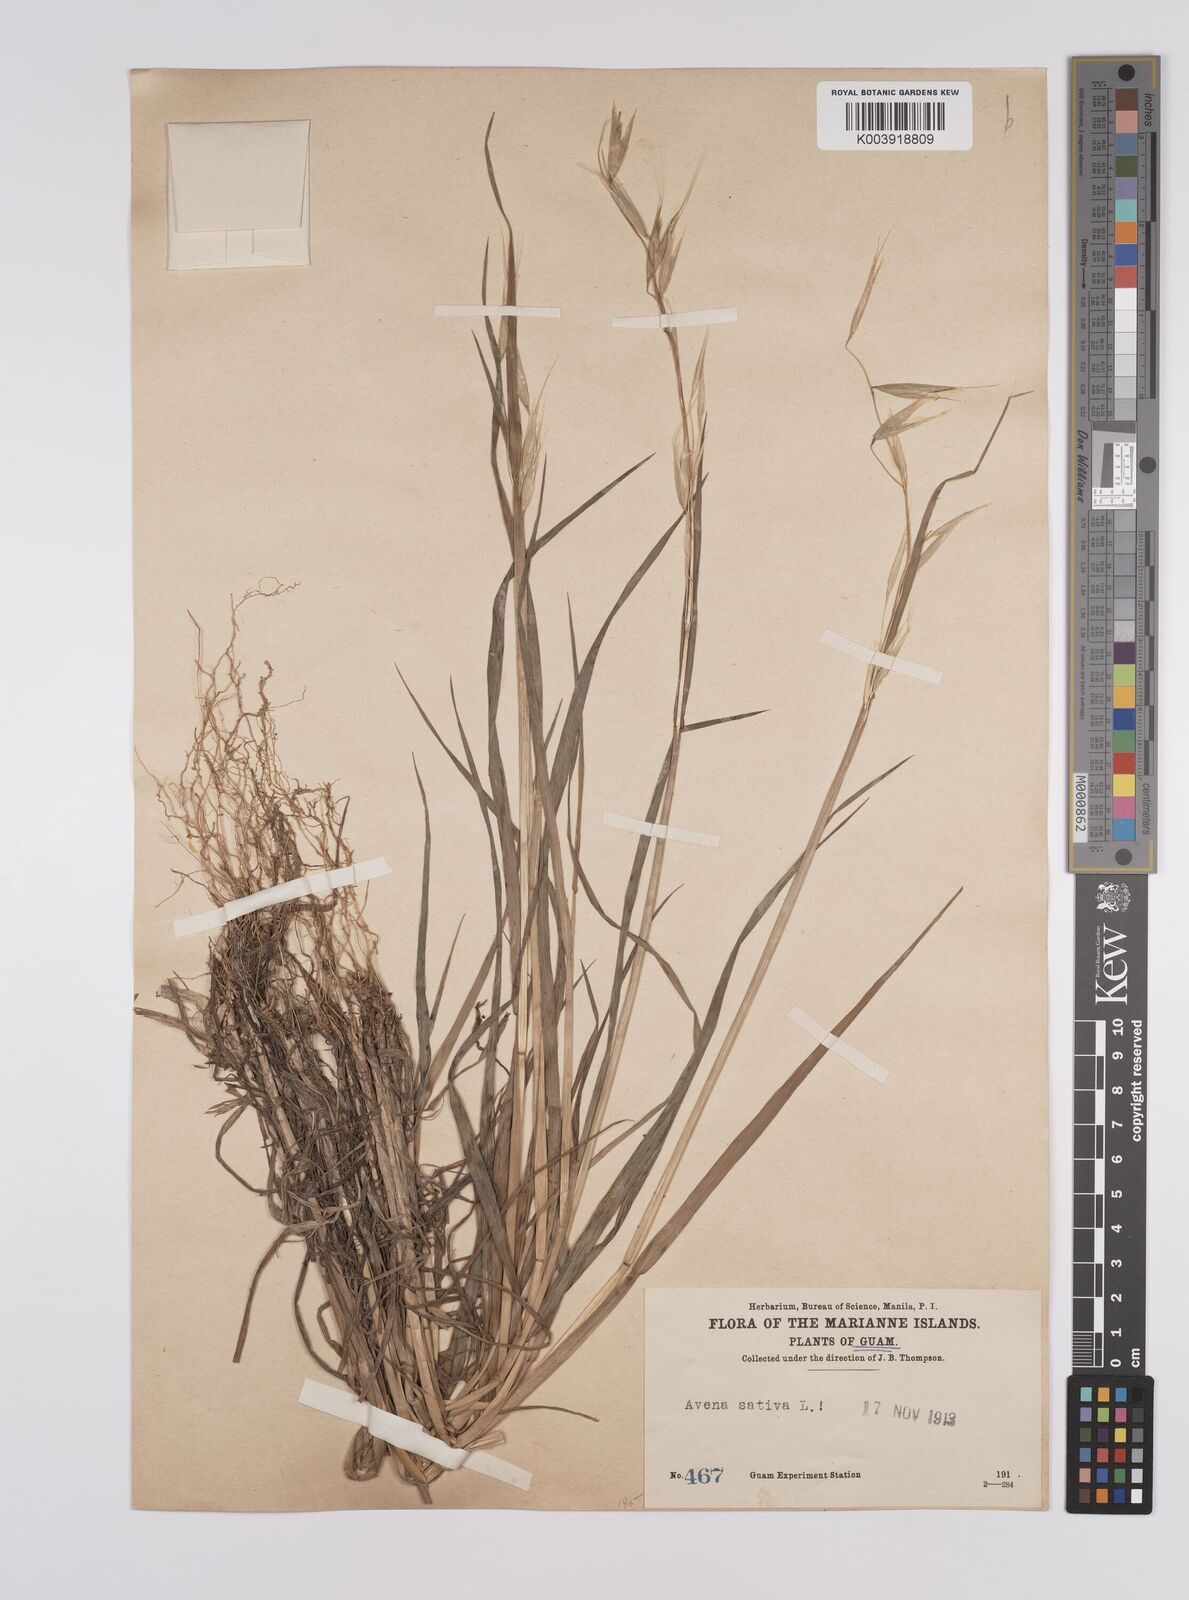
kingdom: Plantae
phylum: Tracheophyta
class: Liliopsida
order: Poales
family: Poaceae
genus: Avena
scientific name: Avena sativa
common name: Oat
